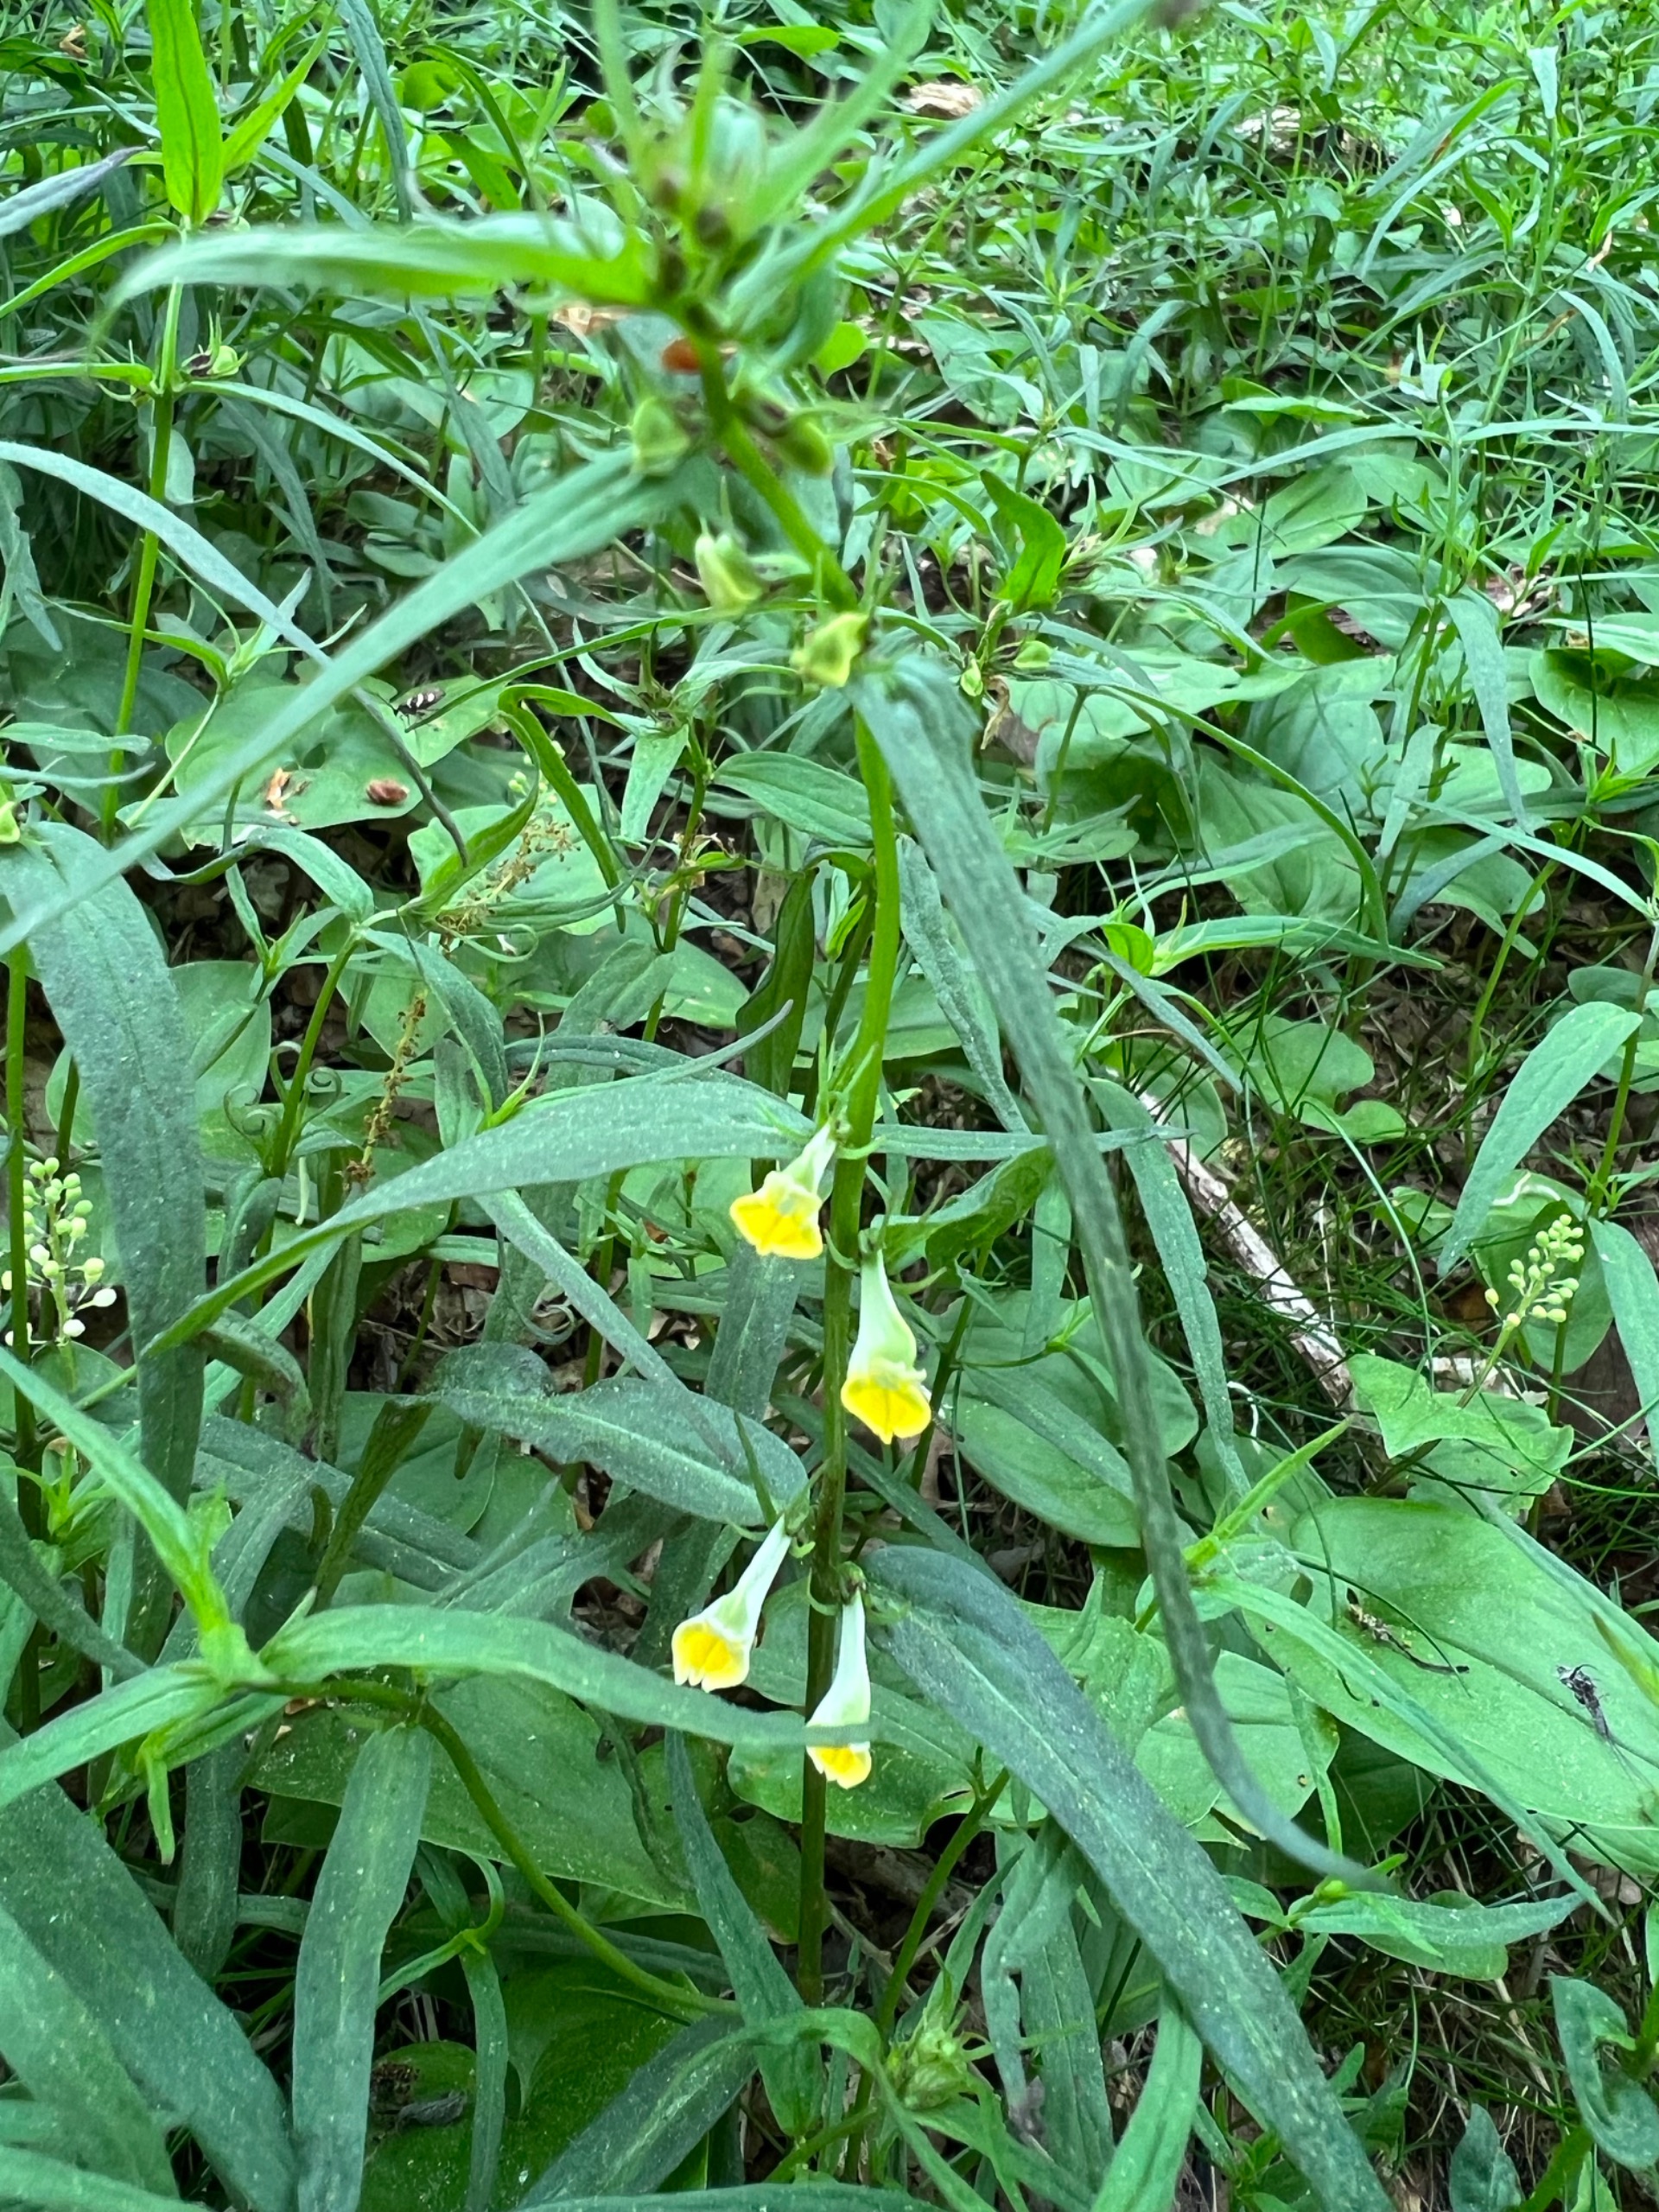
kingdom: Plantae
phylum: Tracheophyta
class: Magnoliopsida
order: Lamiales
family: Orobanchaceae
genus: Melampyrum
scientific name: Melampyrum pratense
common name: Almindelig kohvede
